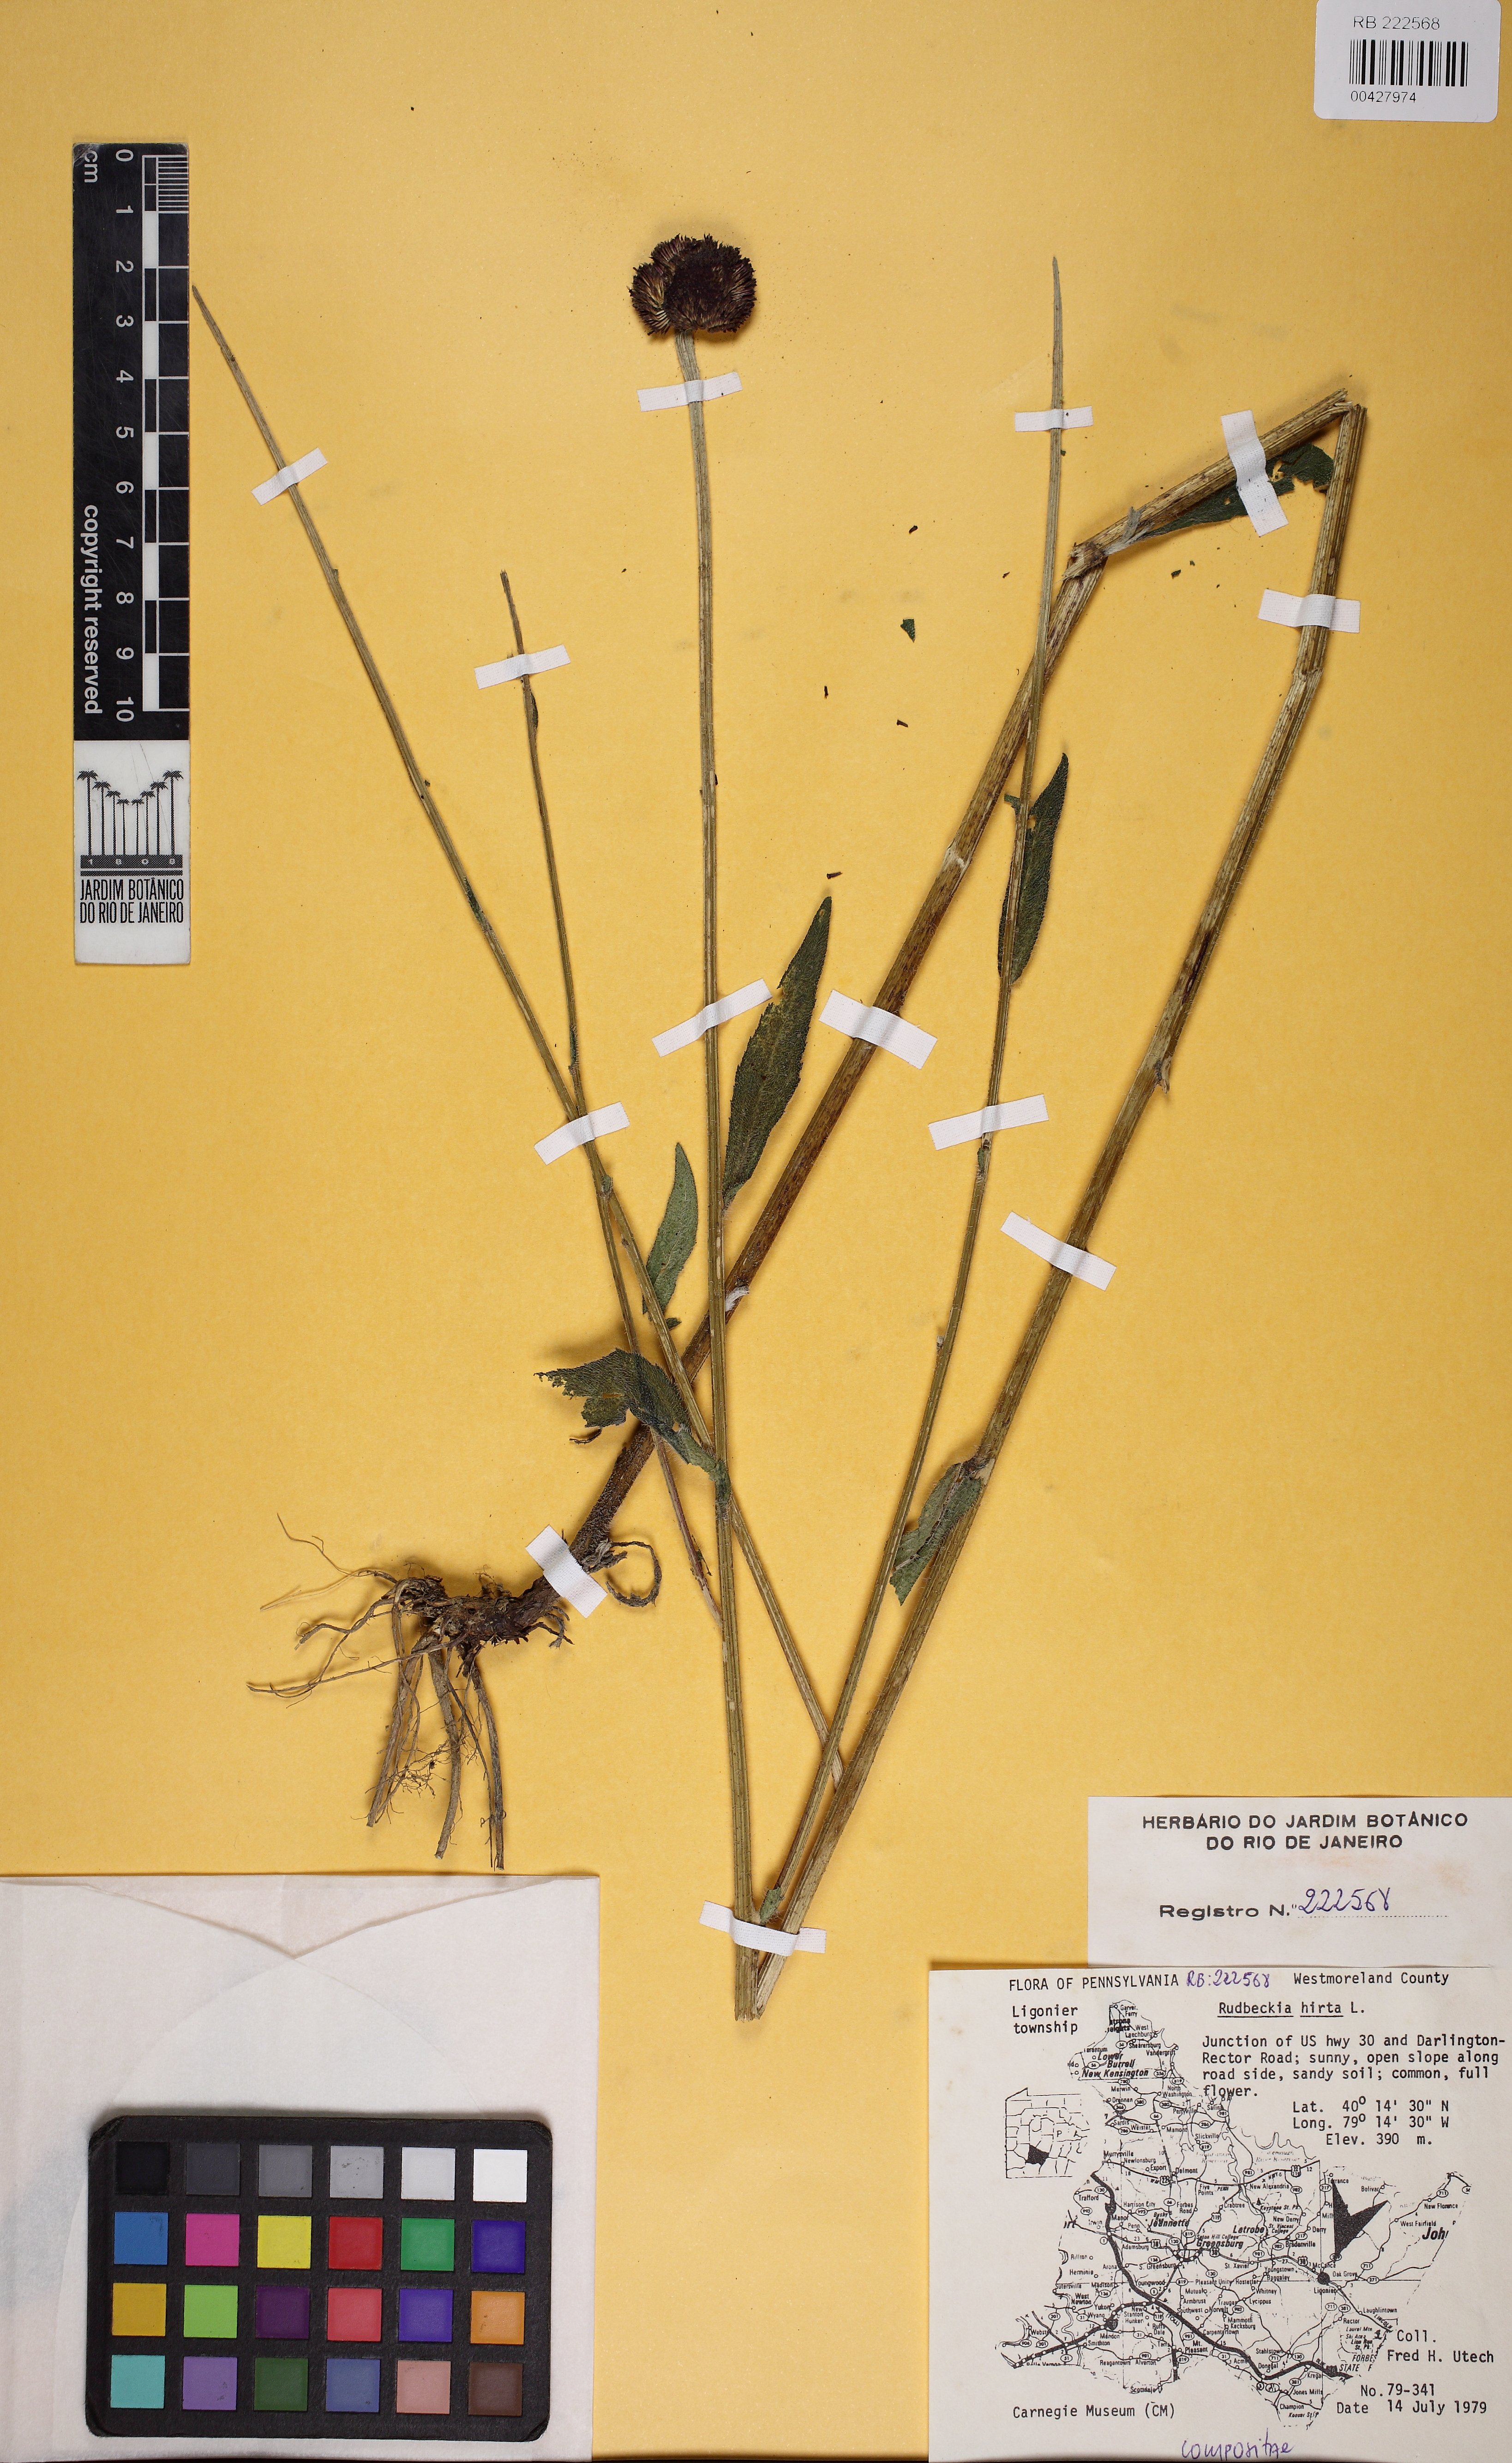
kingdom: Plantae
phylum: Tracheophyta
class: Magnoliopsida
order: Asterales
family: Asteraceae
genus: Rudbeckia
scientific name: Rudbeckia hirta
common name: Black-eyed-susan
